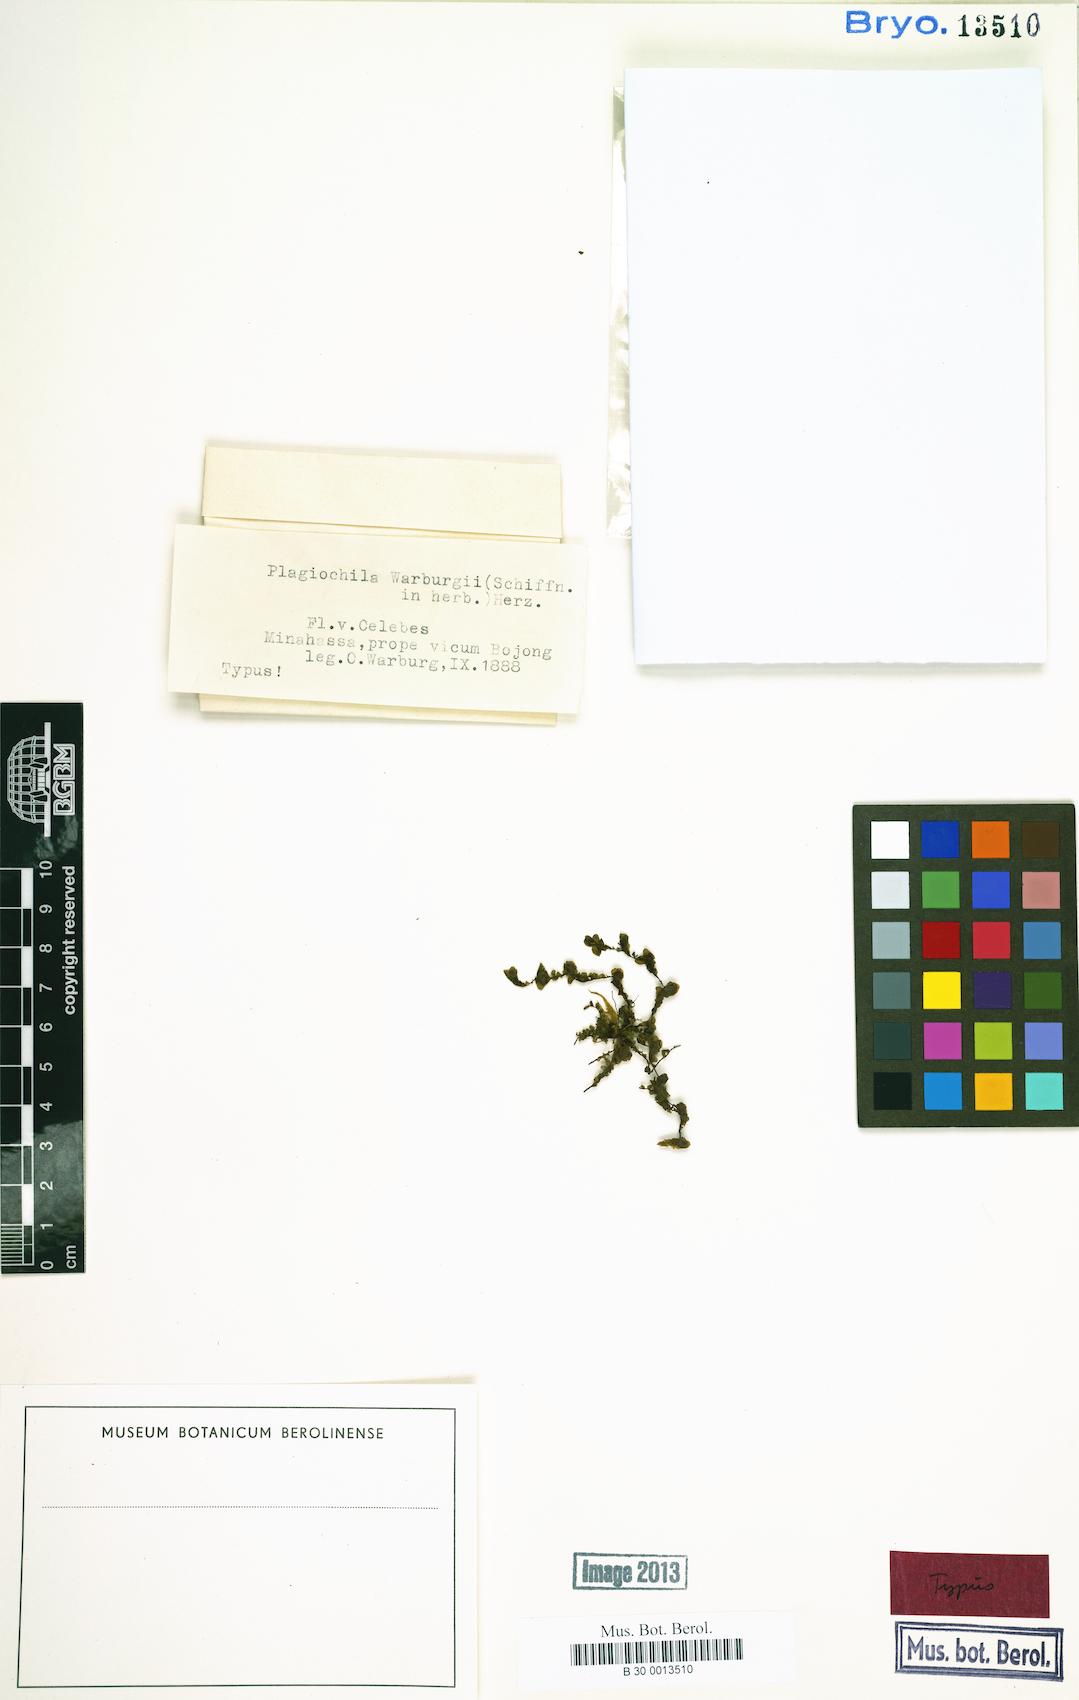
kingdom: Plantae
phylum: Marchantiophyta
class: Jungermanniopsida
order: Jungermanniales
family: Plagiochilaceae
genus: Plagiochila
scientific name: Plagiochila gymnoclada
